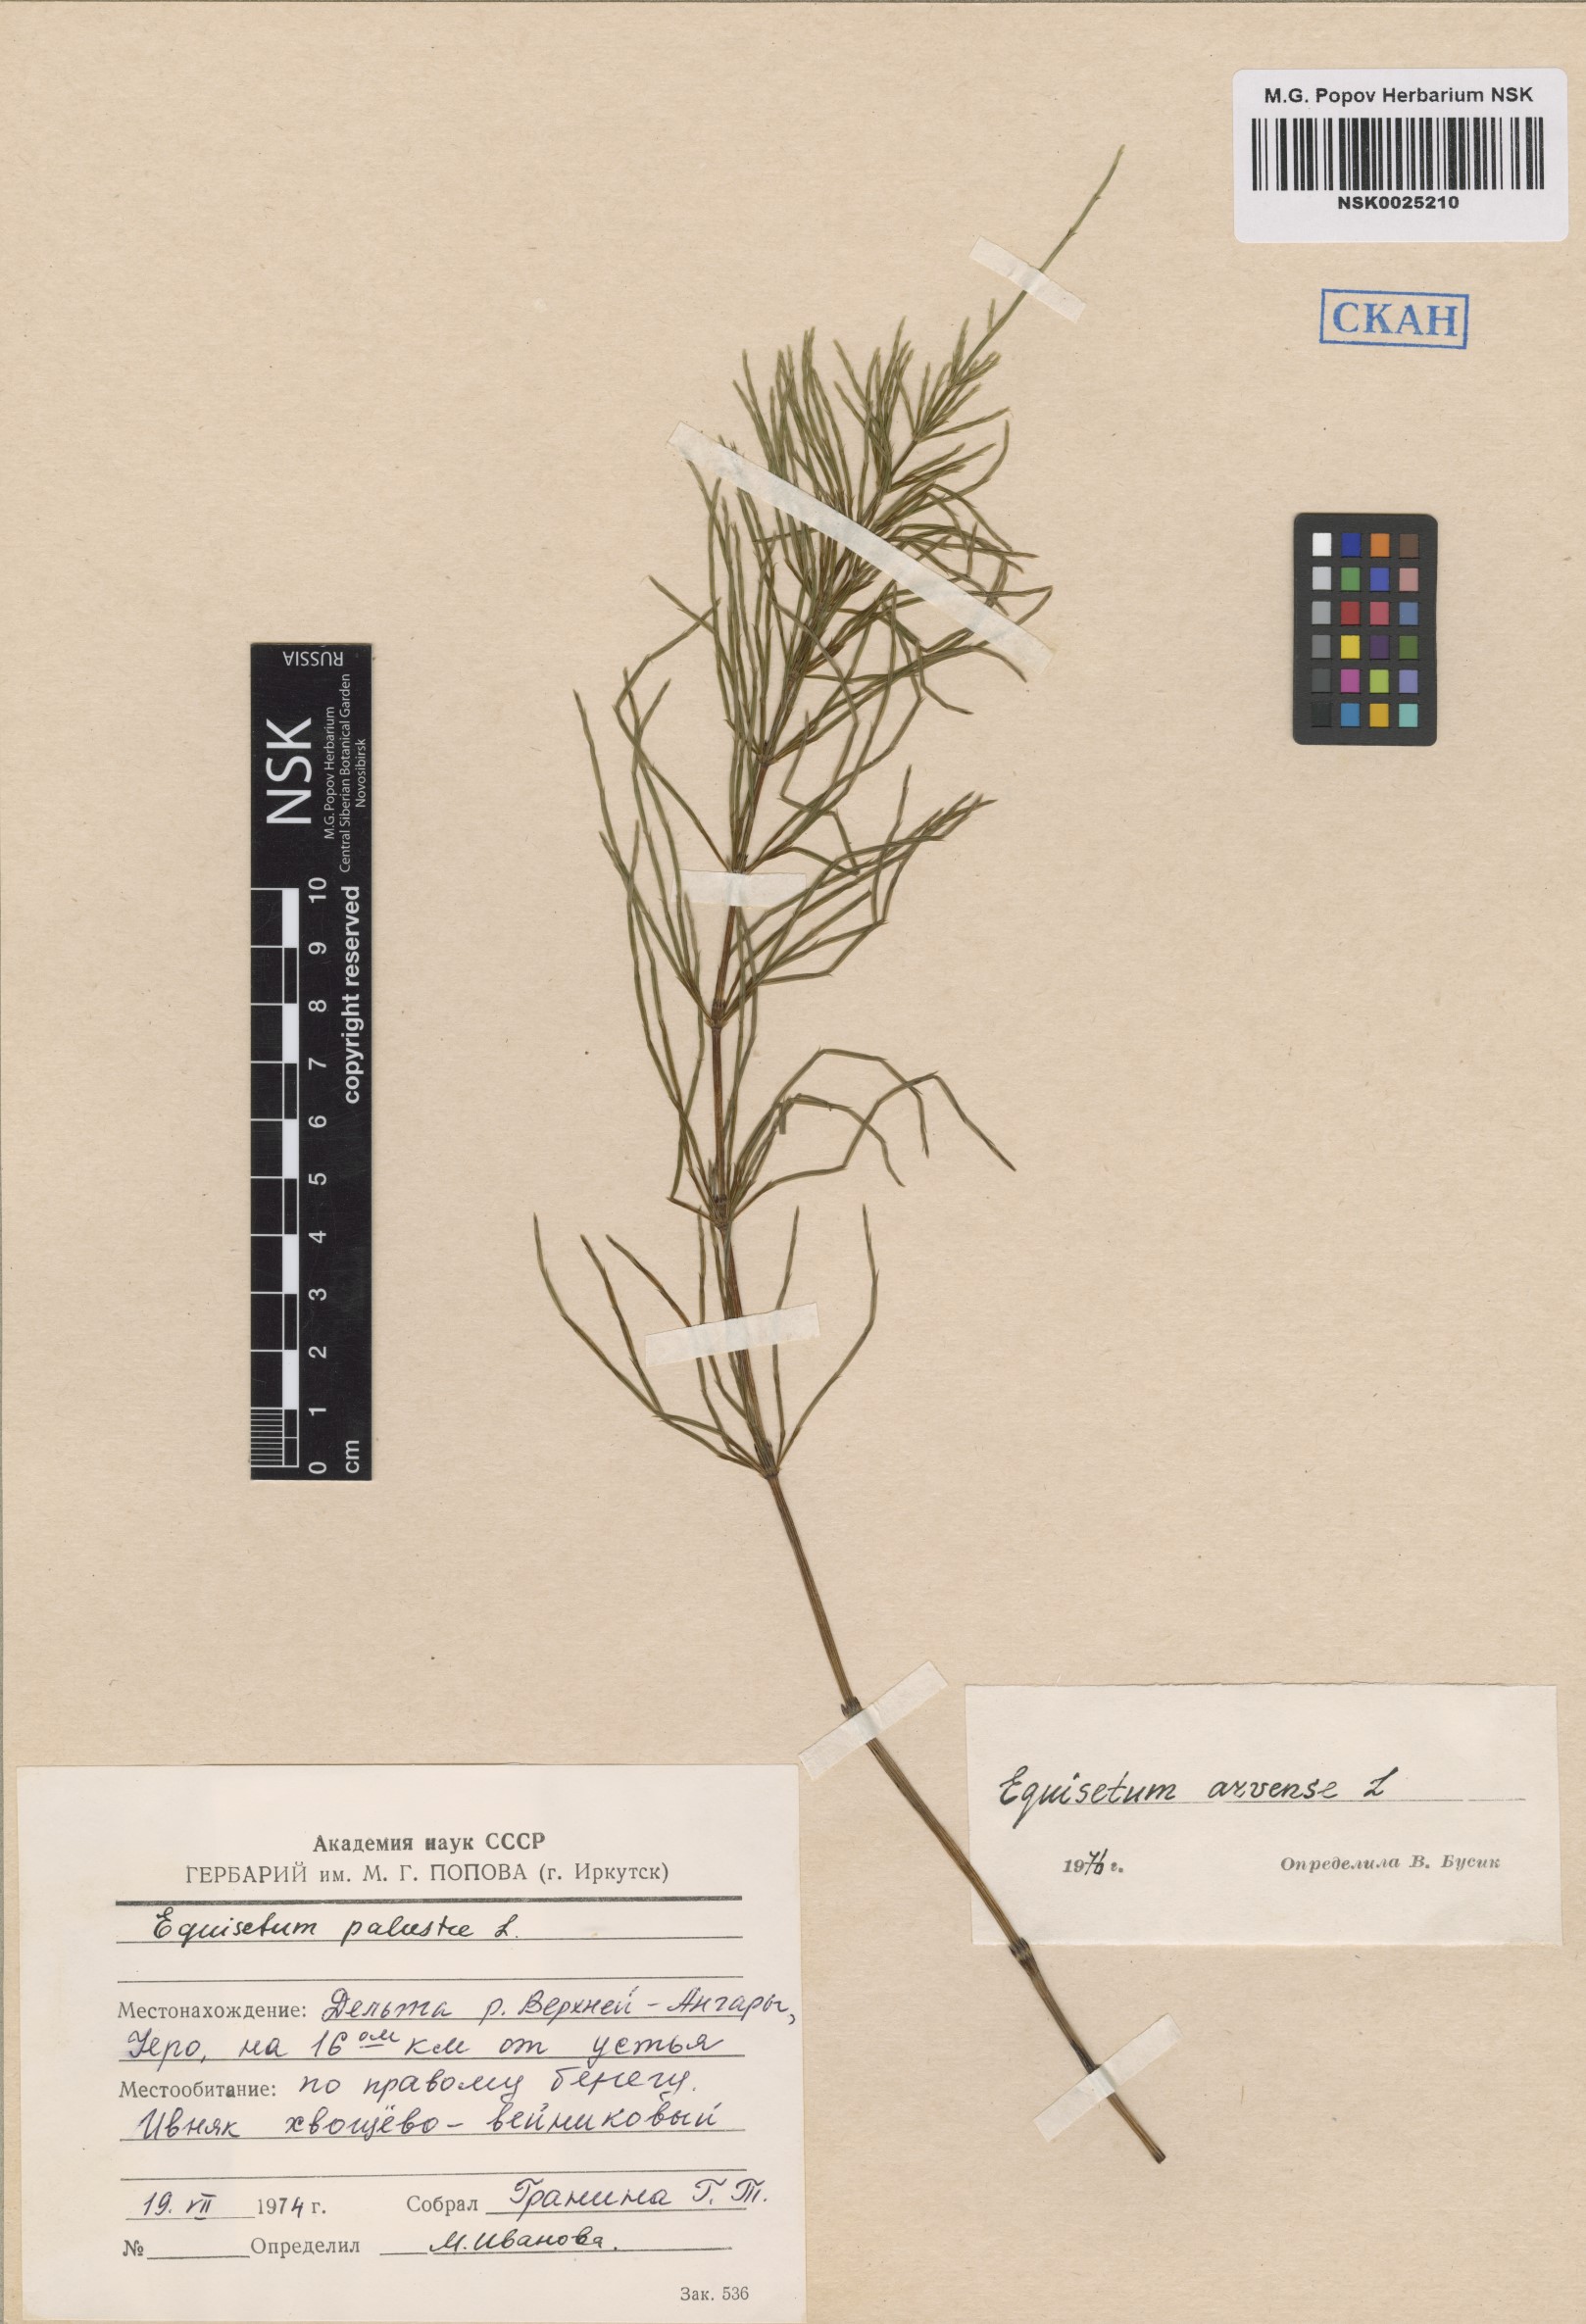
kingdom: Plantae
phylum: Tracheophyta
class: Polypodiopsida
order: Equisetales
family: Equisetaceae
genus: Equisetum
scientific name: Equisetum arvense
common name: Field horsetail
